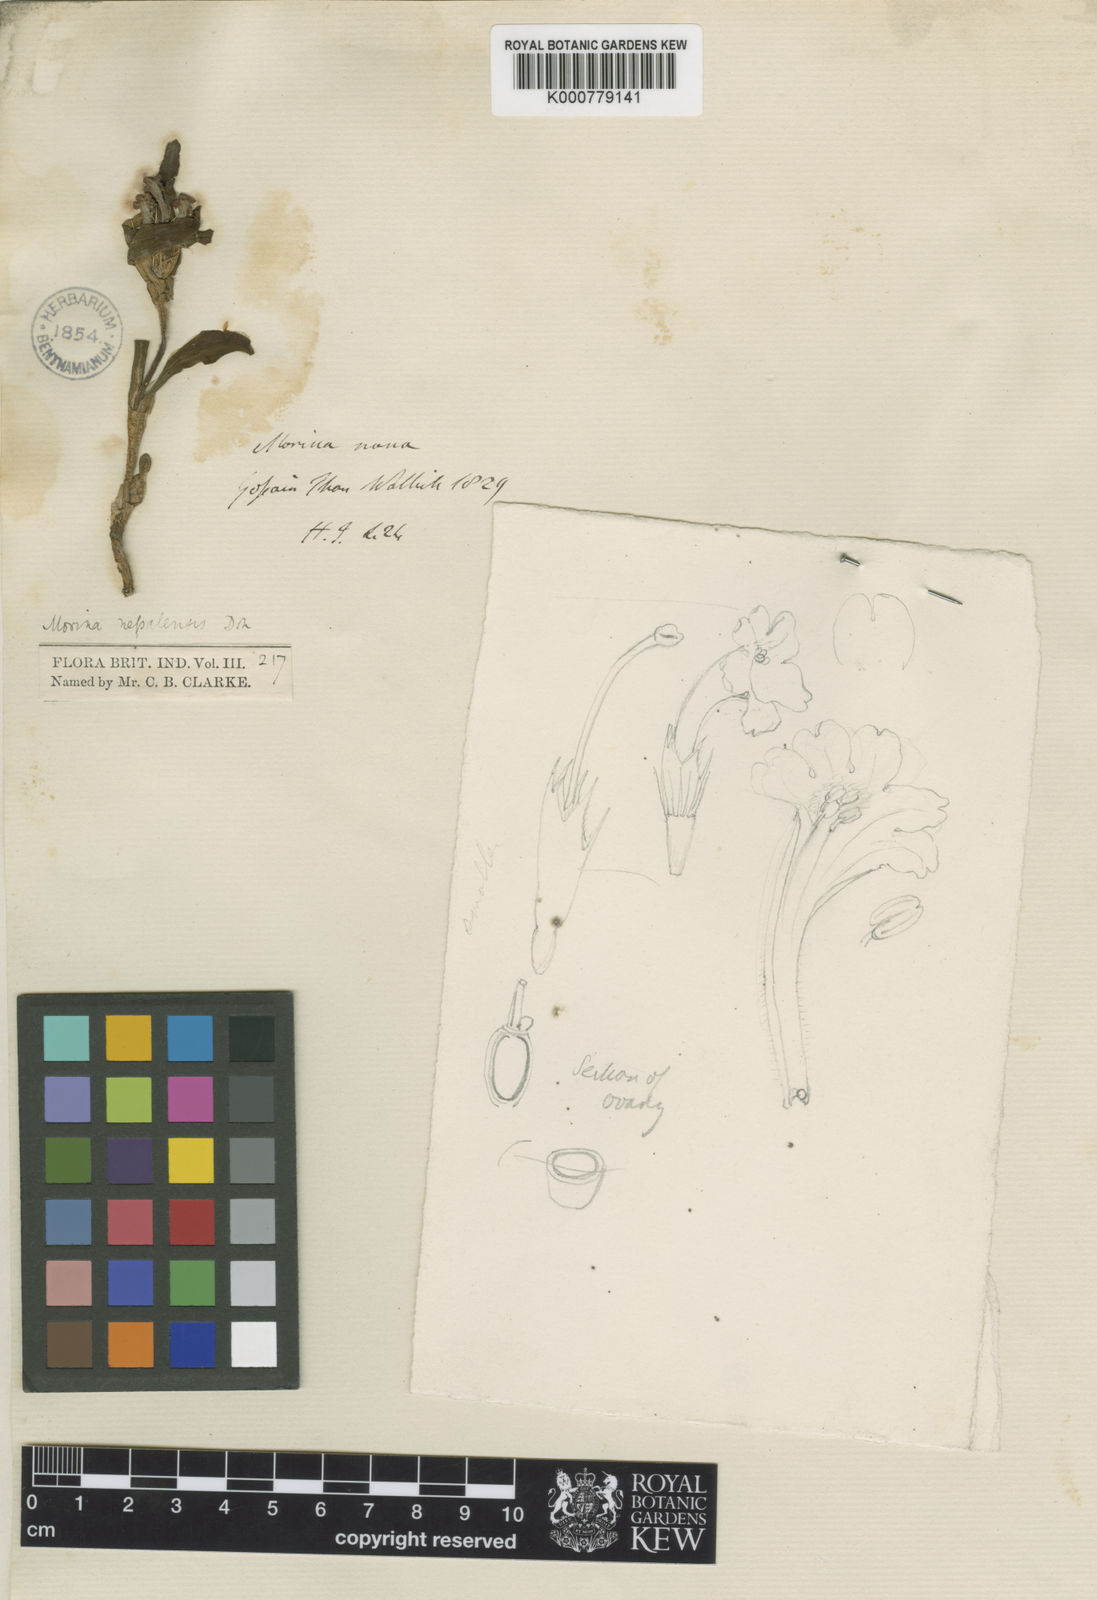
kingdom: Plantae
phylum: Tracheophyta
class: Magnoliopsida
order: Dipsacales
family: Caprifoliaceae
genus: Acanthocalyx
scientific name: Acanthocalyx nepalensis
